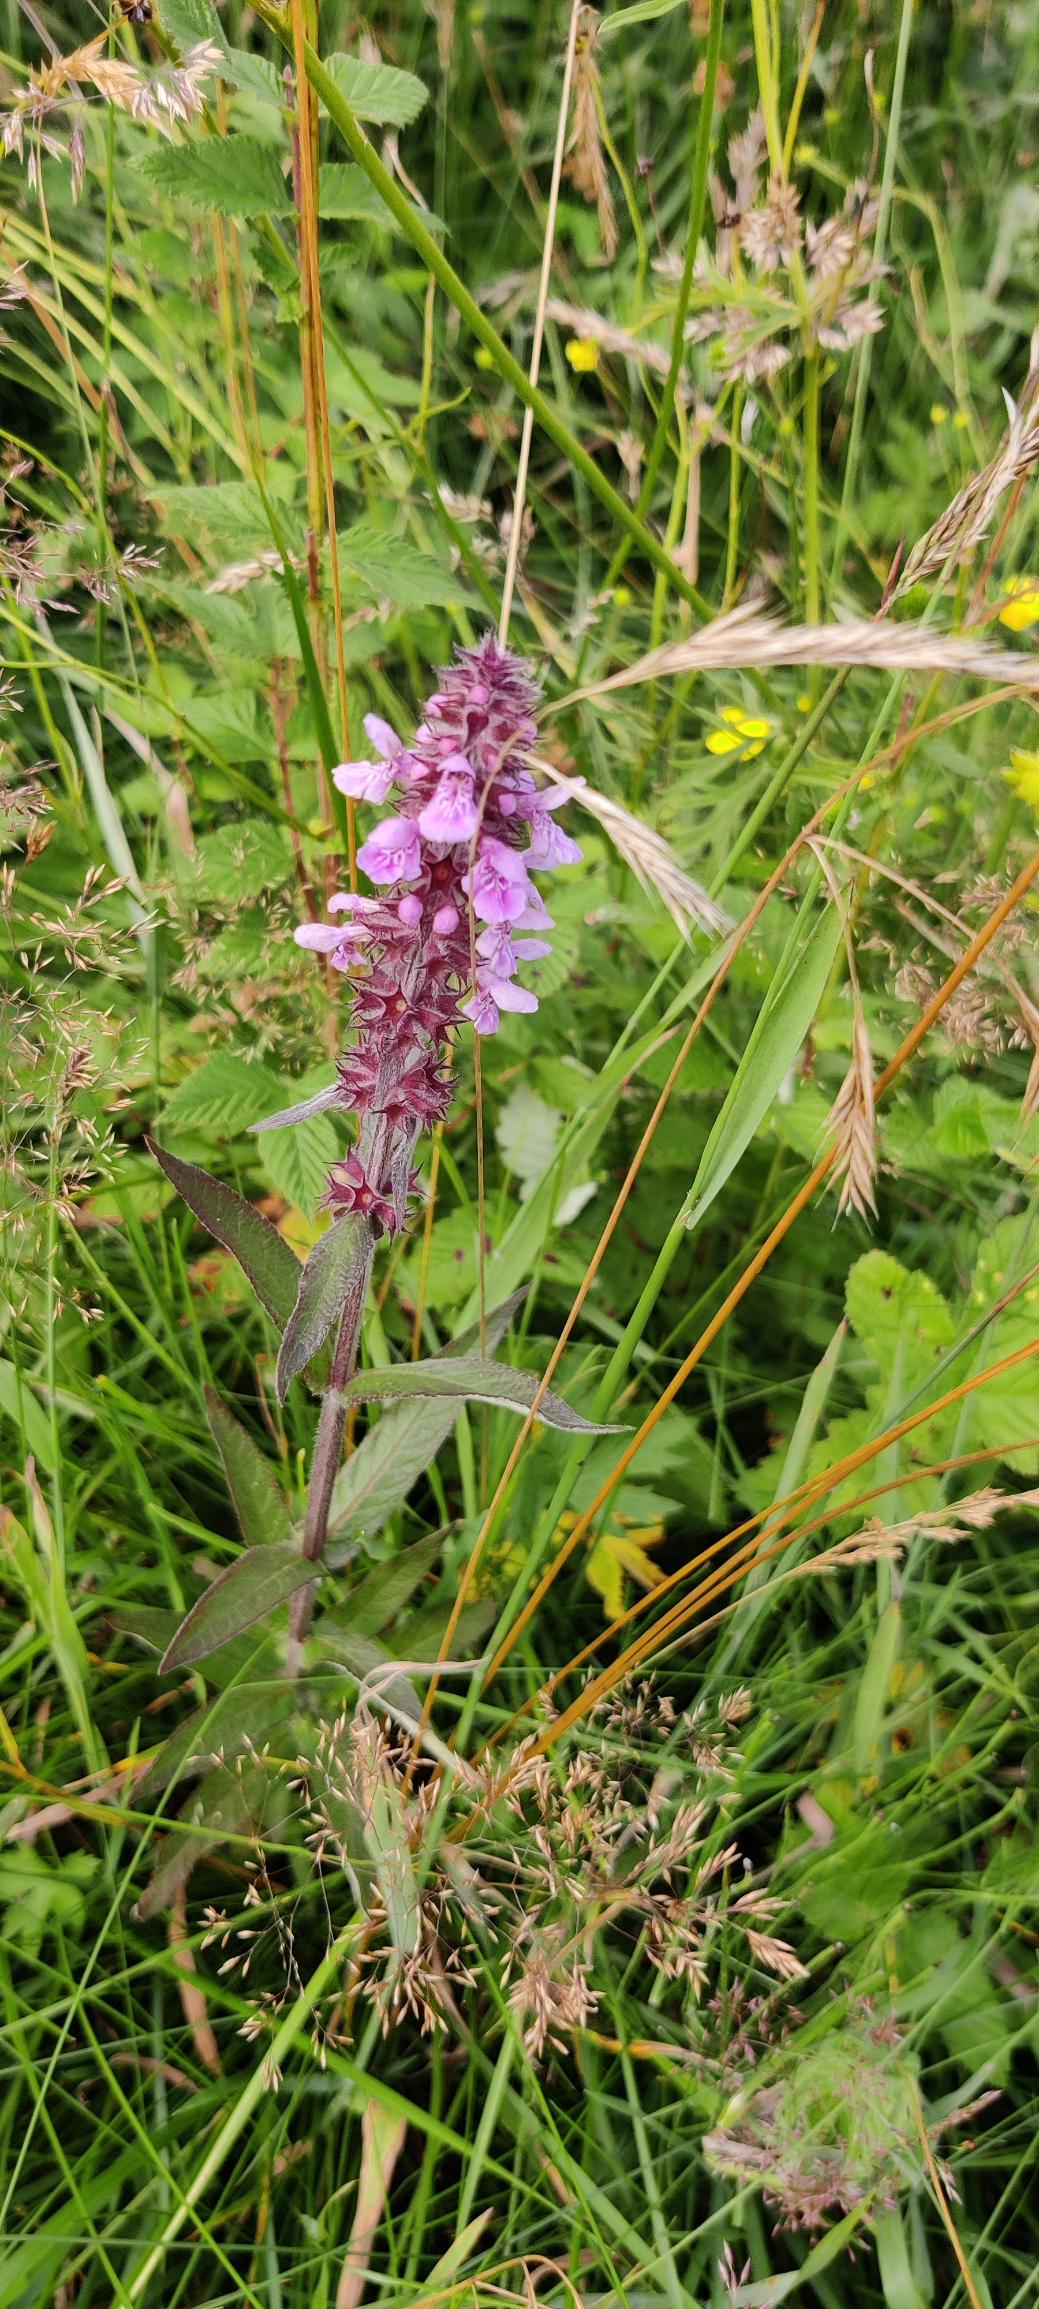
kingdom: Plantae
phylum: Tracheophyta
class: Magnoliopsida
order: Lamiales
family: Lamiaceae
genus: Stachys
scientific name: Stachys palustris
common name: Kær-galtetand
